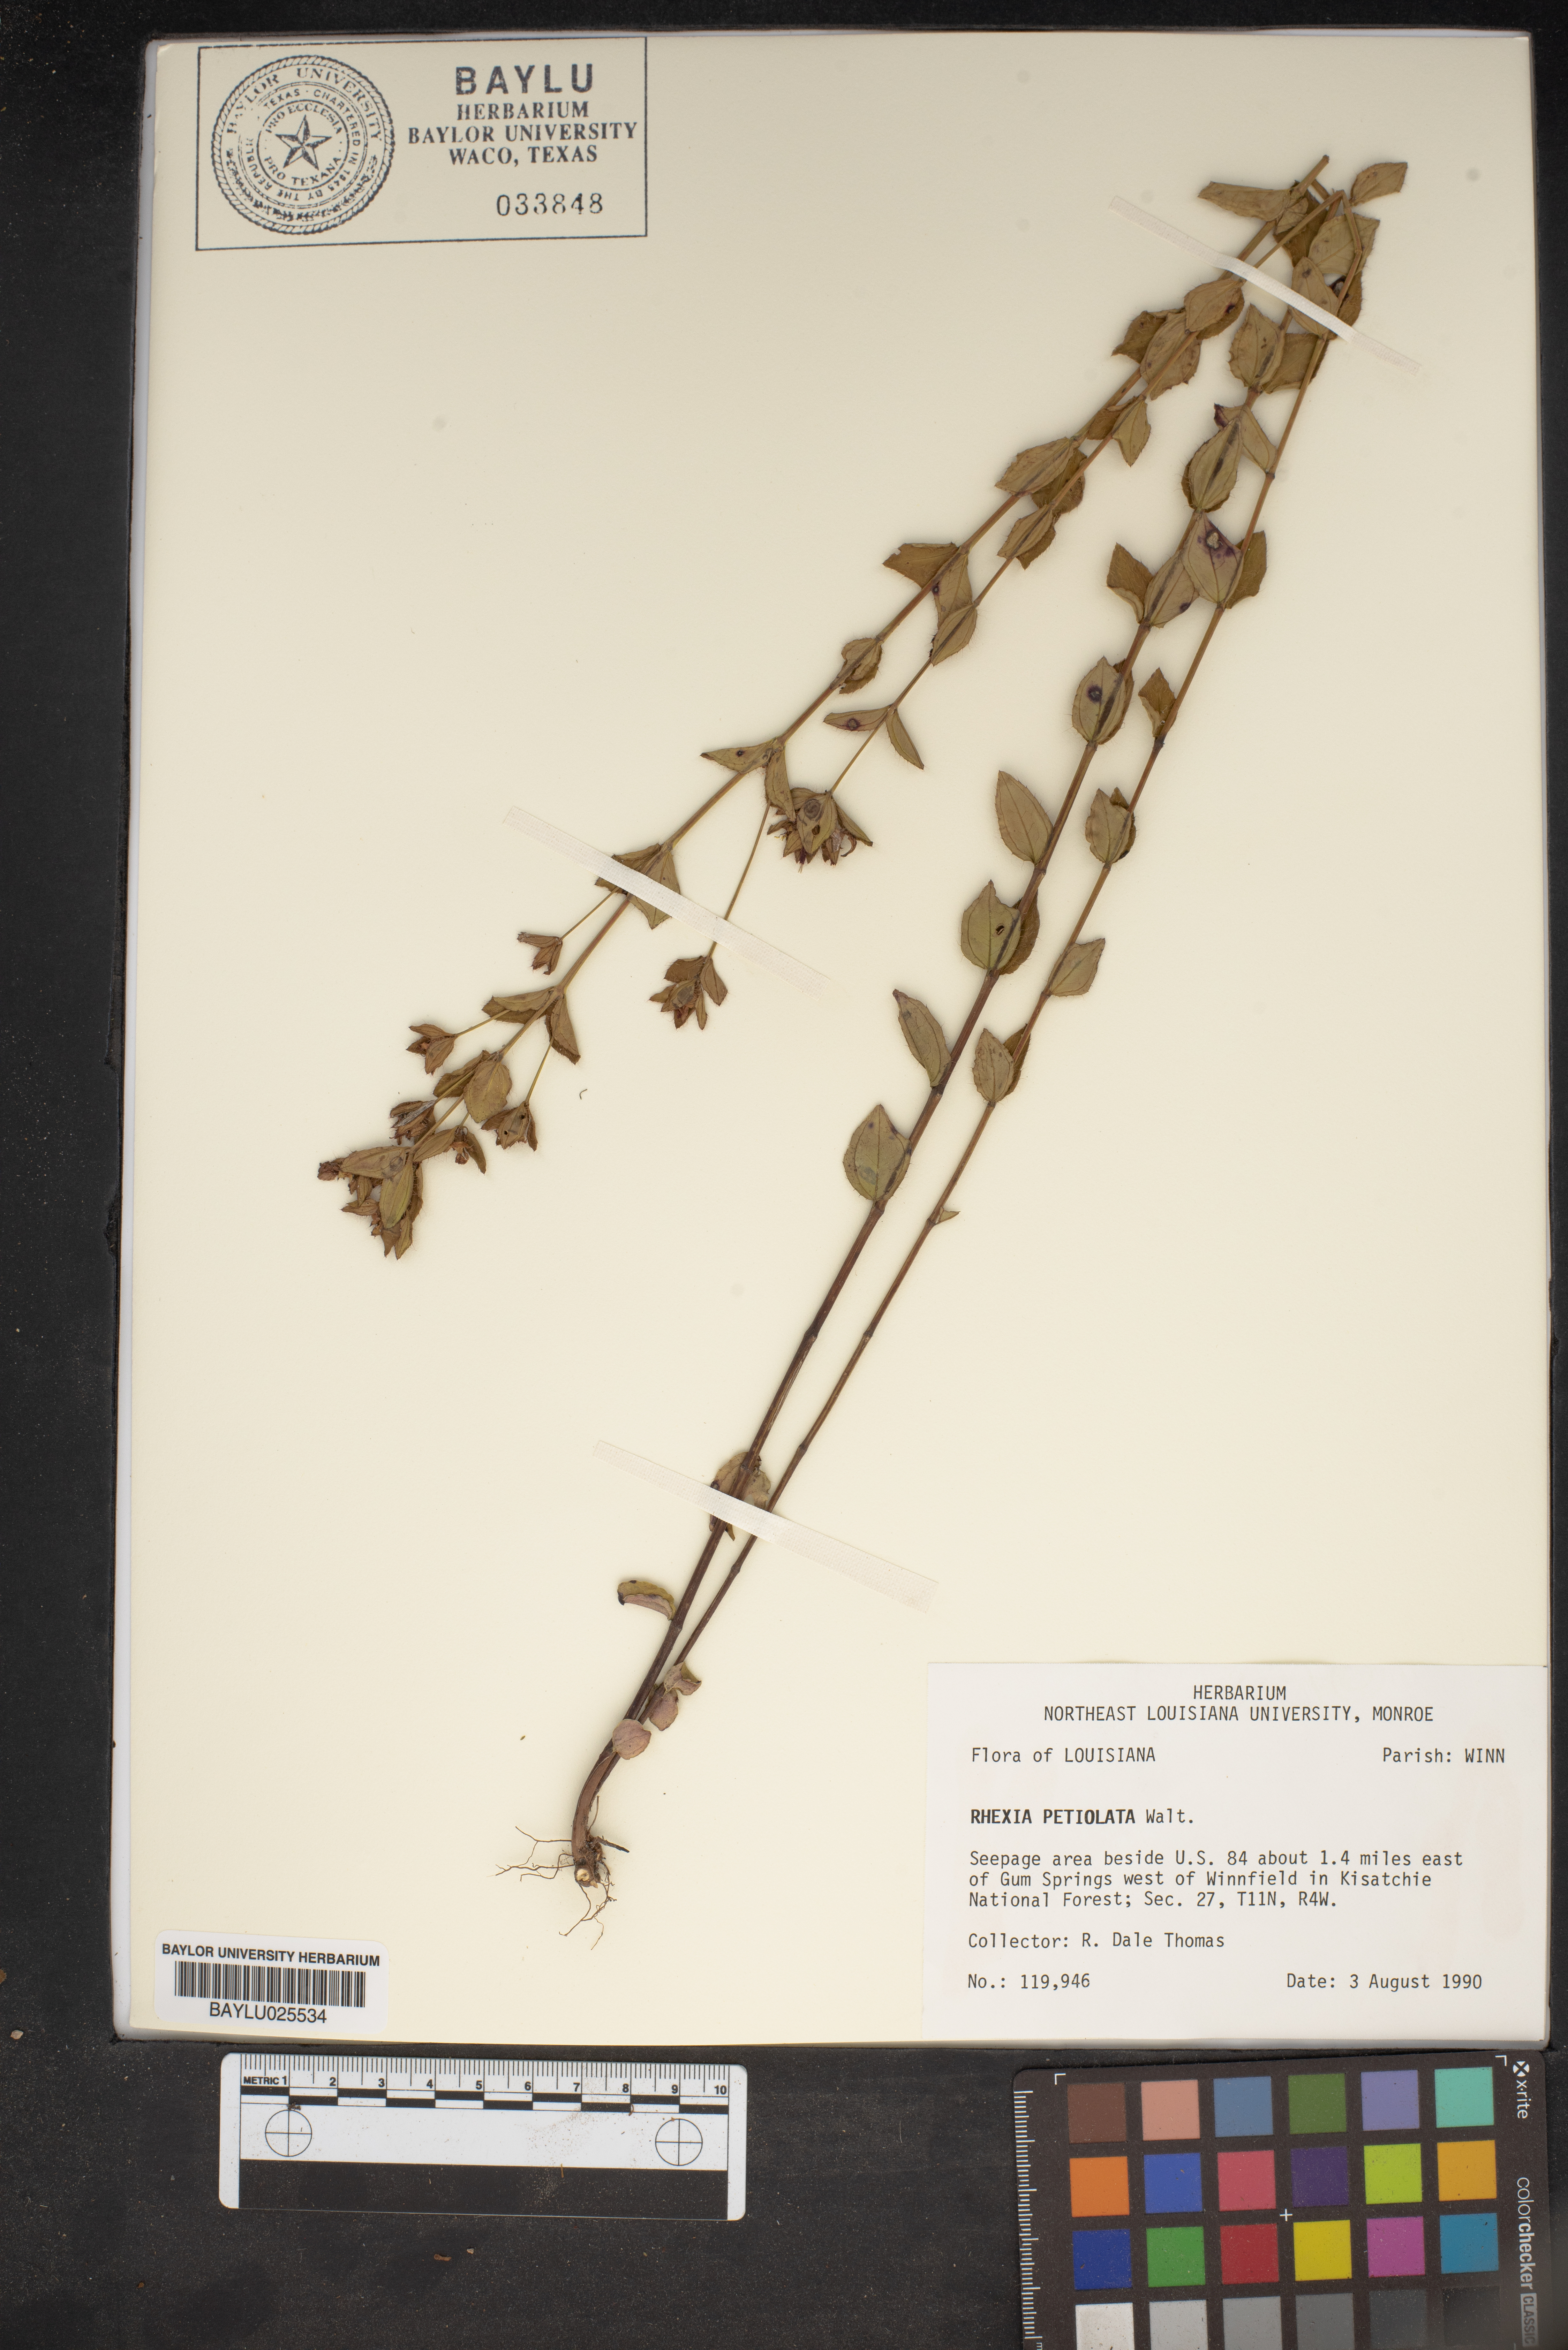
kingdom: Plantae
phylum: Tracheophyta
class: Magnoliopsida
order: Myrtales
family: Melastomataceae
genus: Rhexia
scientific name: Rhexia petiolata
